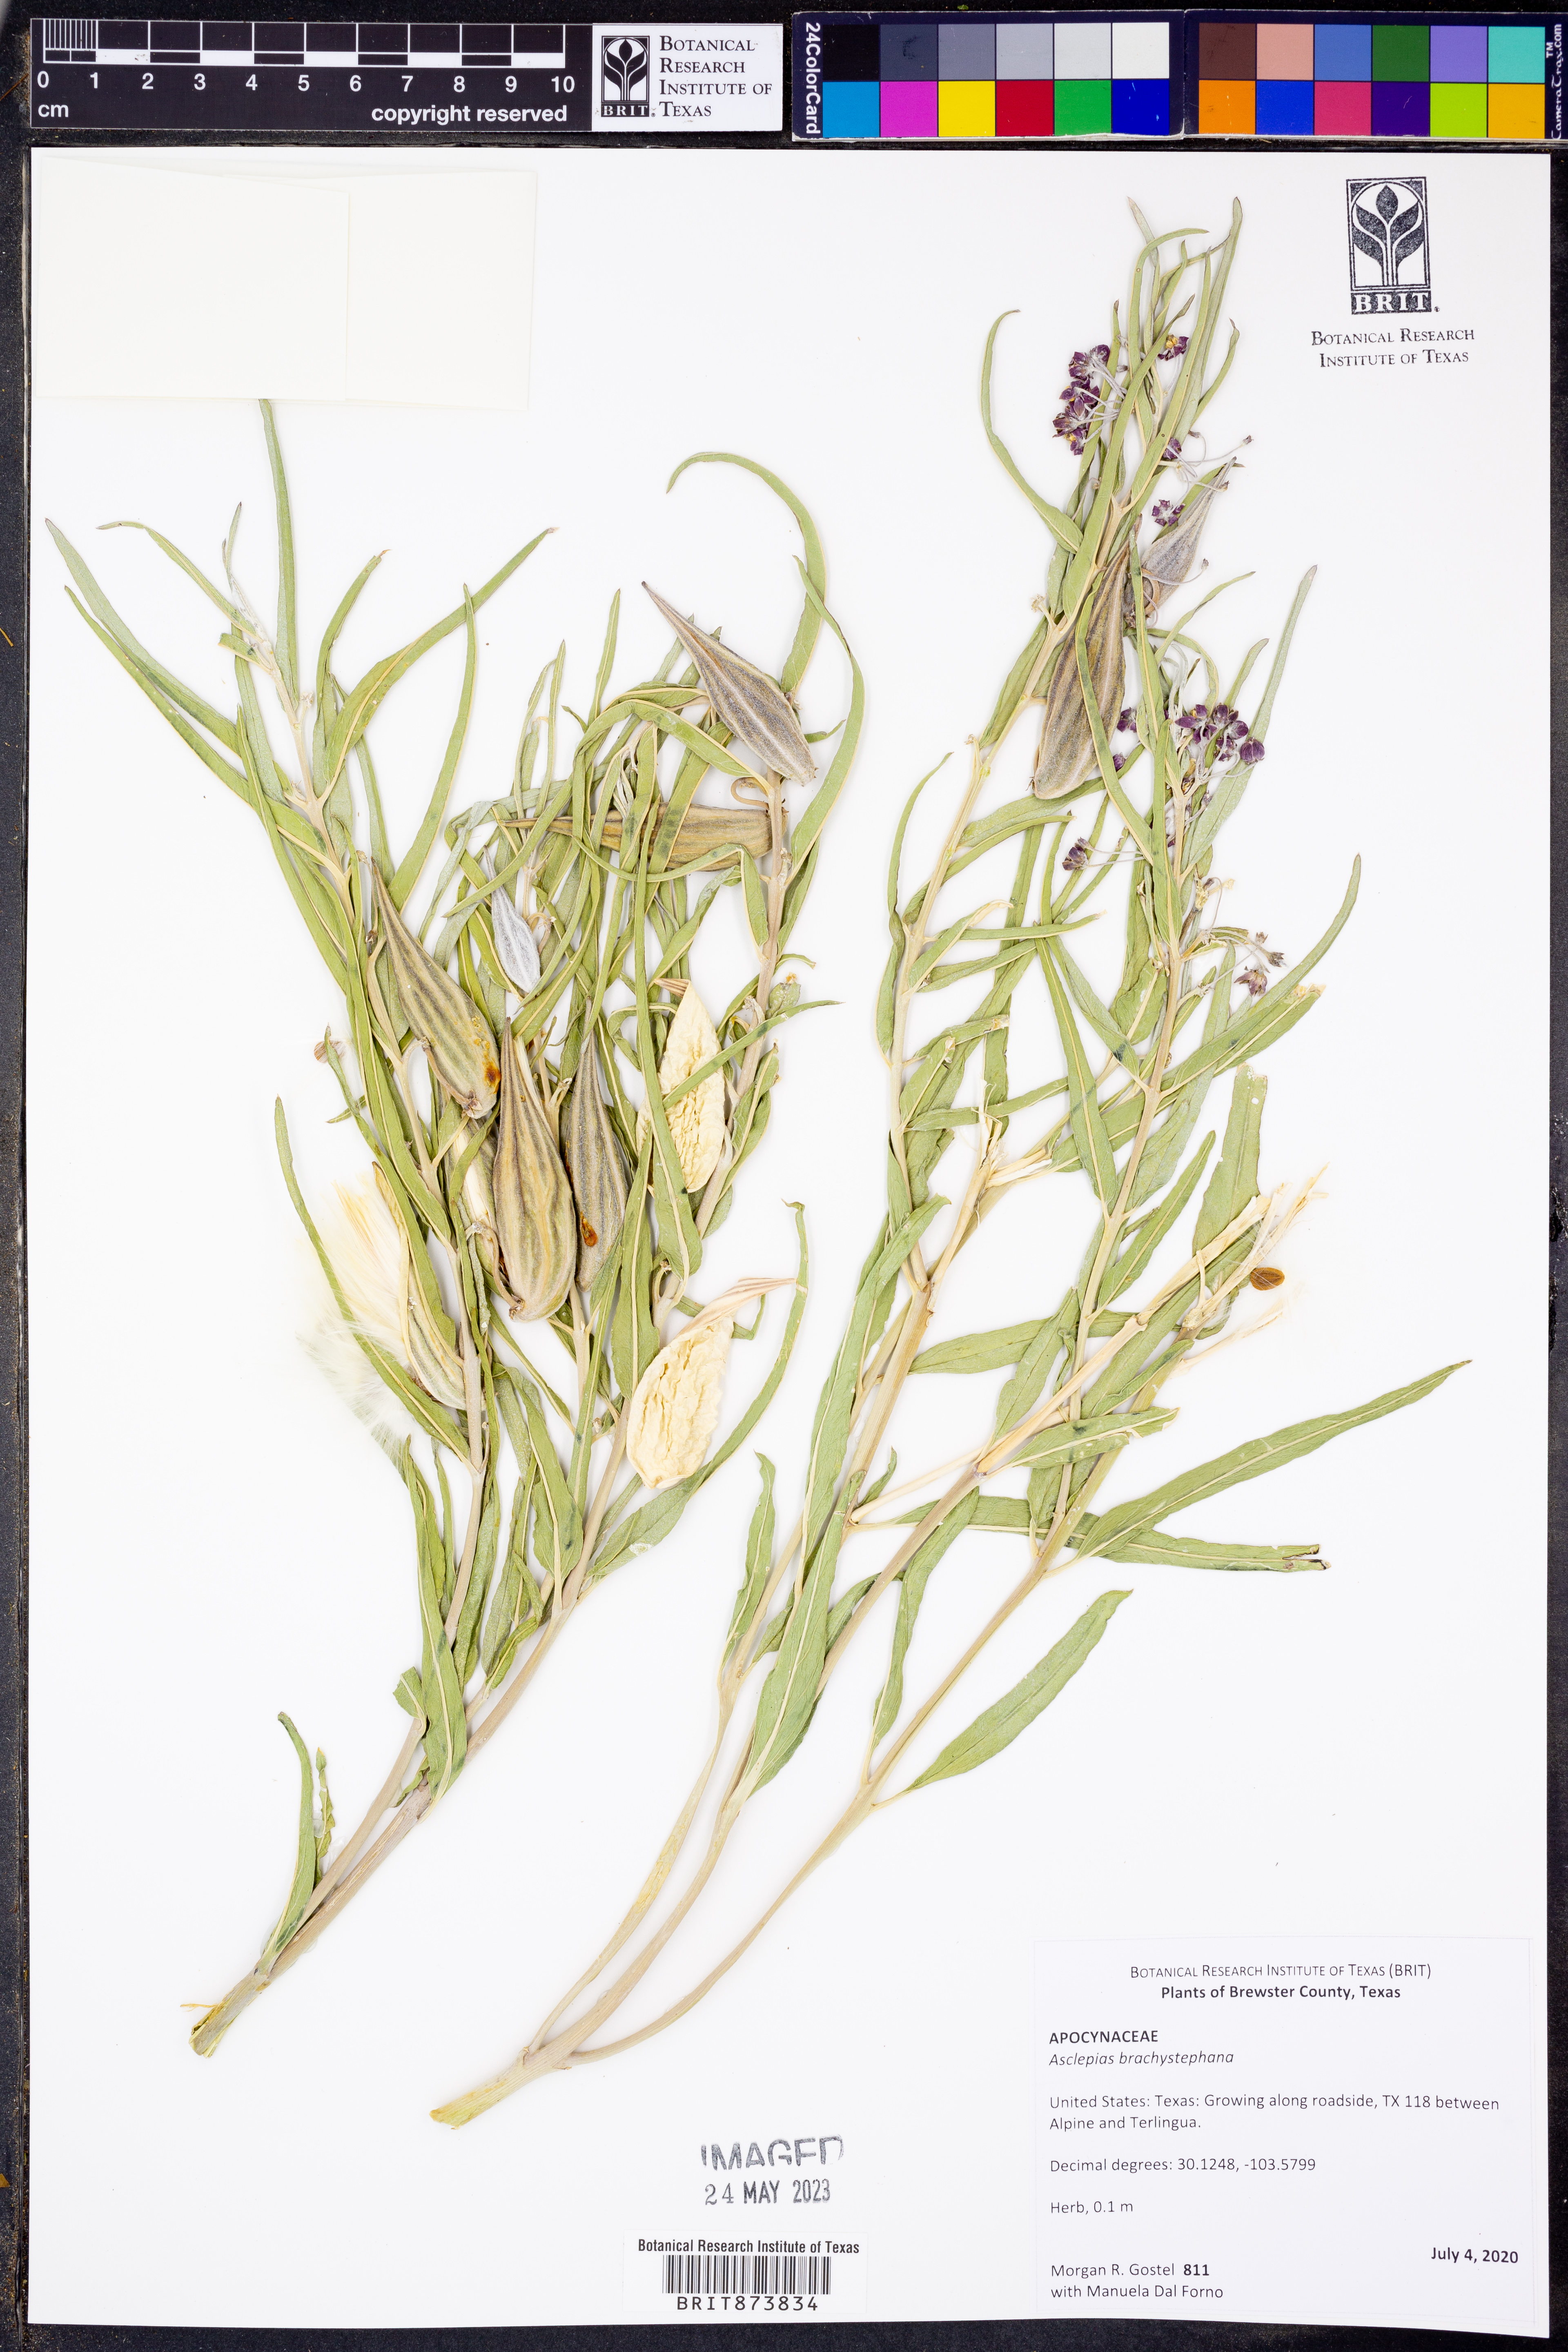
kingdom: Plantae
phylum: Tracheophyta
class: Magnoliopsida
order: Gentianales
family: Apocynaceae
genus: Asclepias
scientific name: Asclepias brachystephana
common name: Shortcrown milkweed
